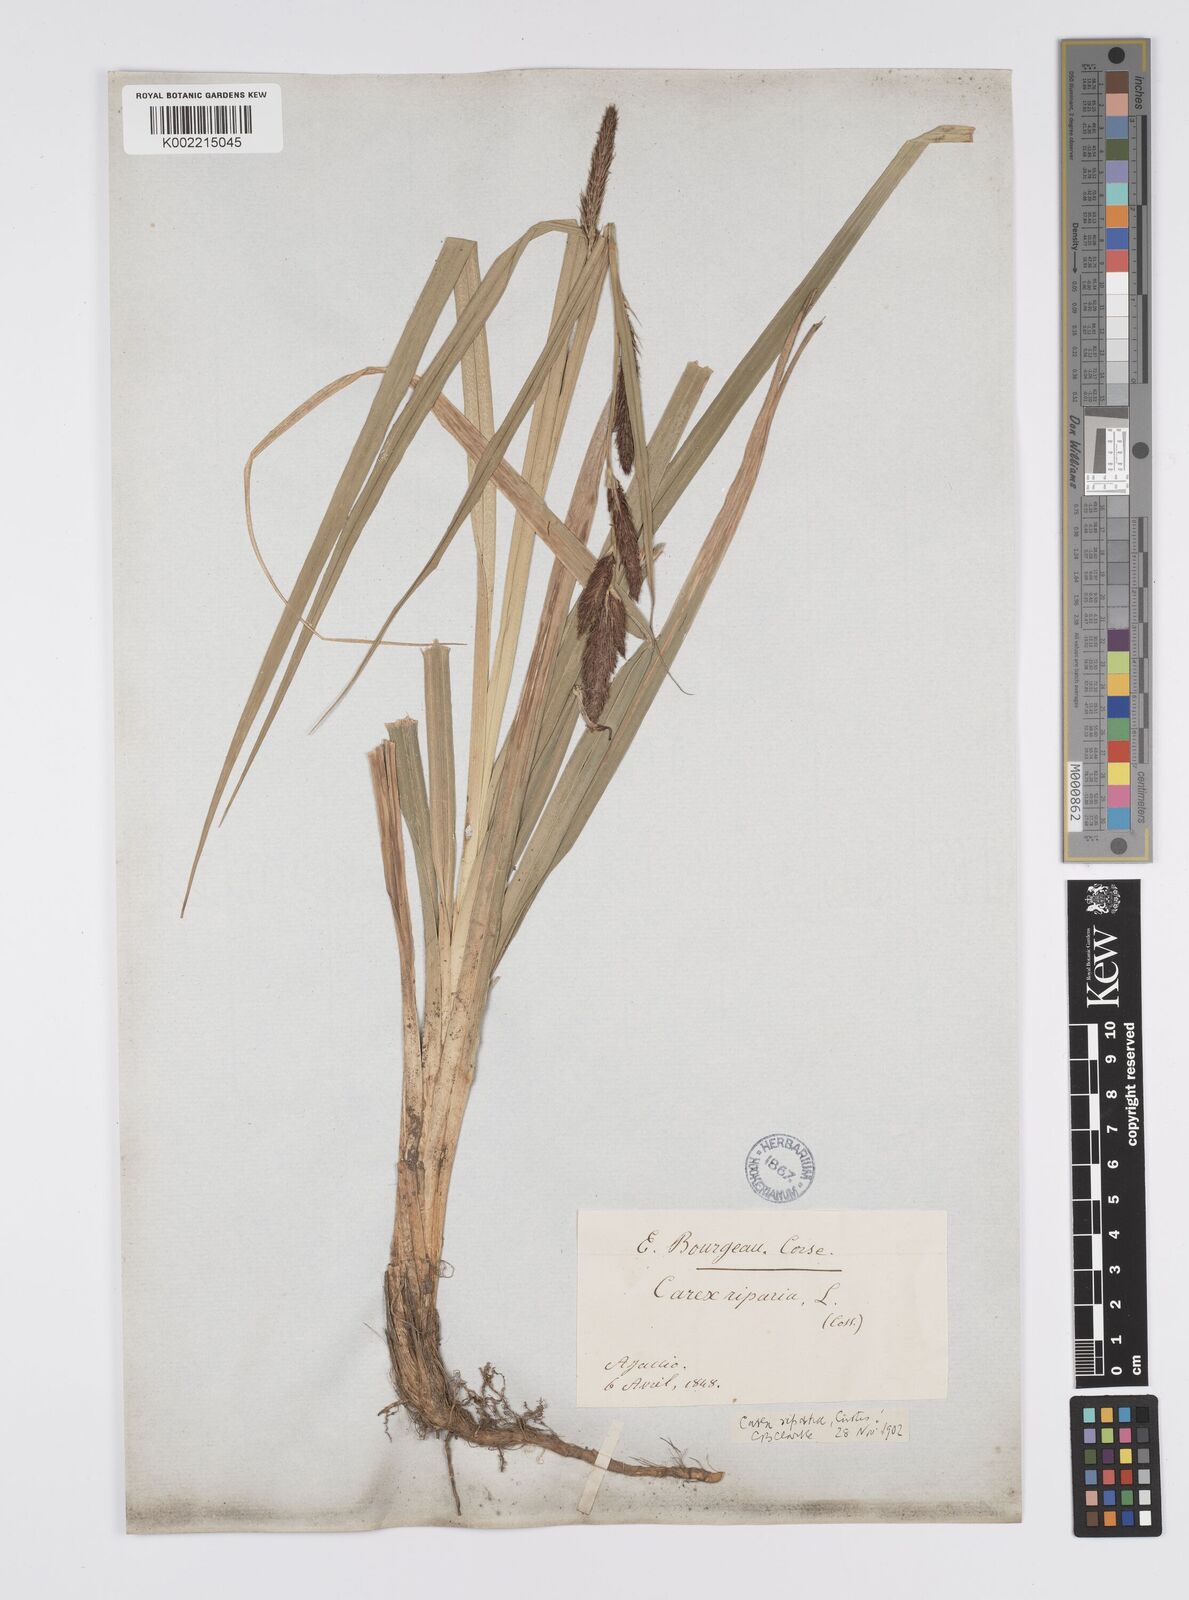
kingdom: Plantae
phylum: Tracheophyta
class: Liliopsida
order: Poales
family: Cyperaceae
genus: Carex
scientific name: Carex riparia
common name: Greater pond-sedge
